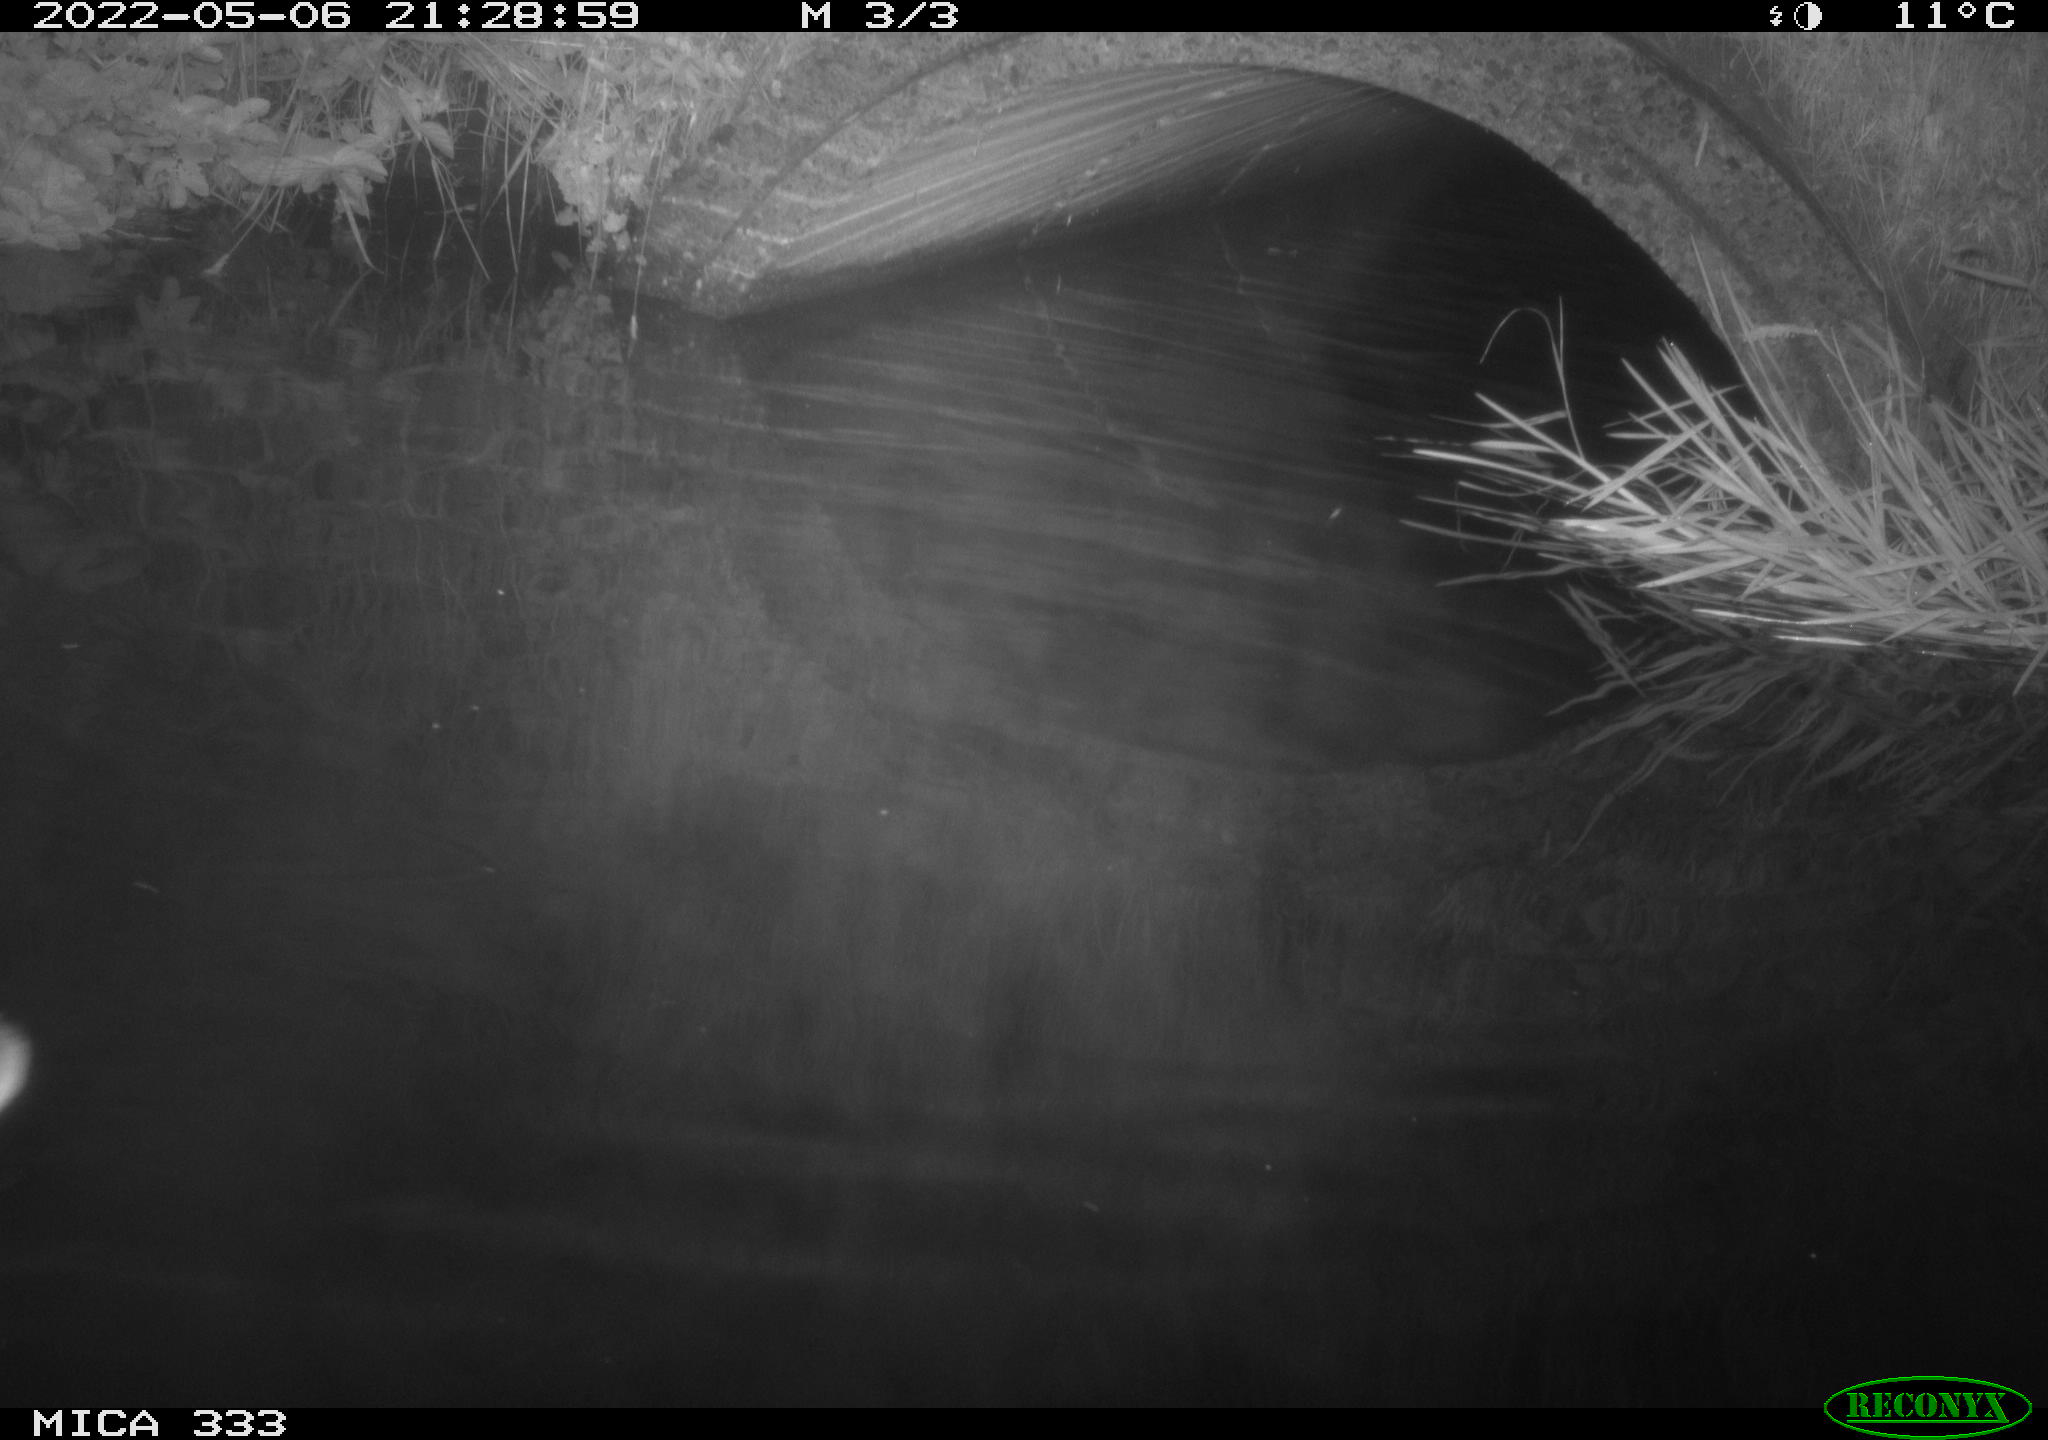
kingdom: Animalia
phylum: Chordata
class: Aves
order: Anseriformes
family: Anatidae
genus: Anas
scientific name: Anas platyrhynchos
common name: Mallard
